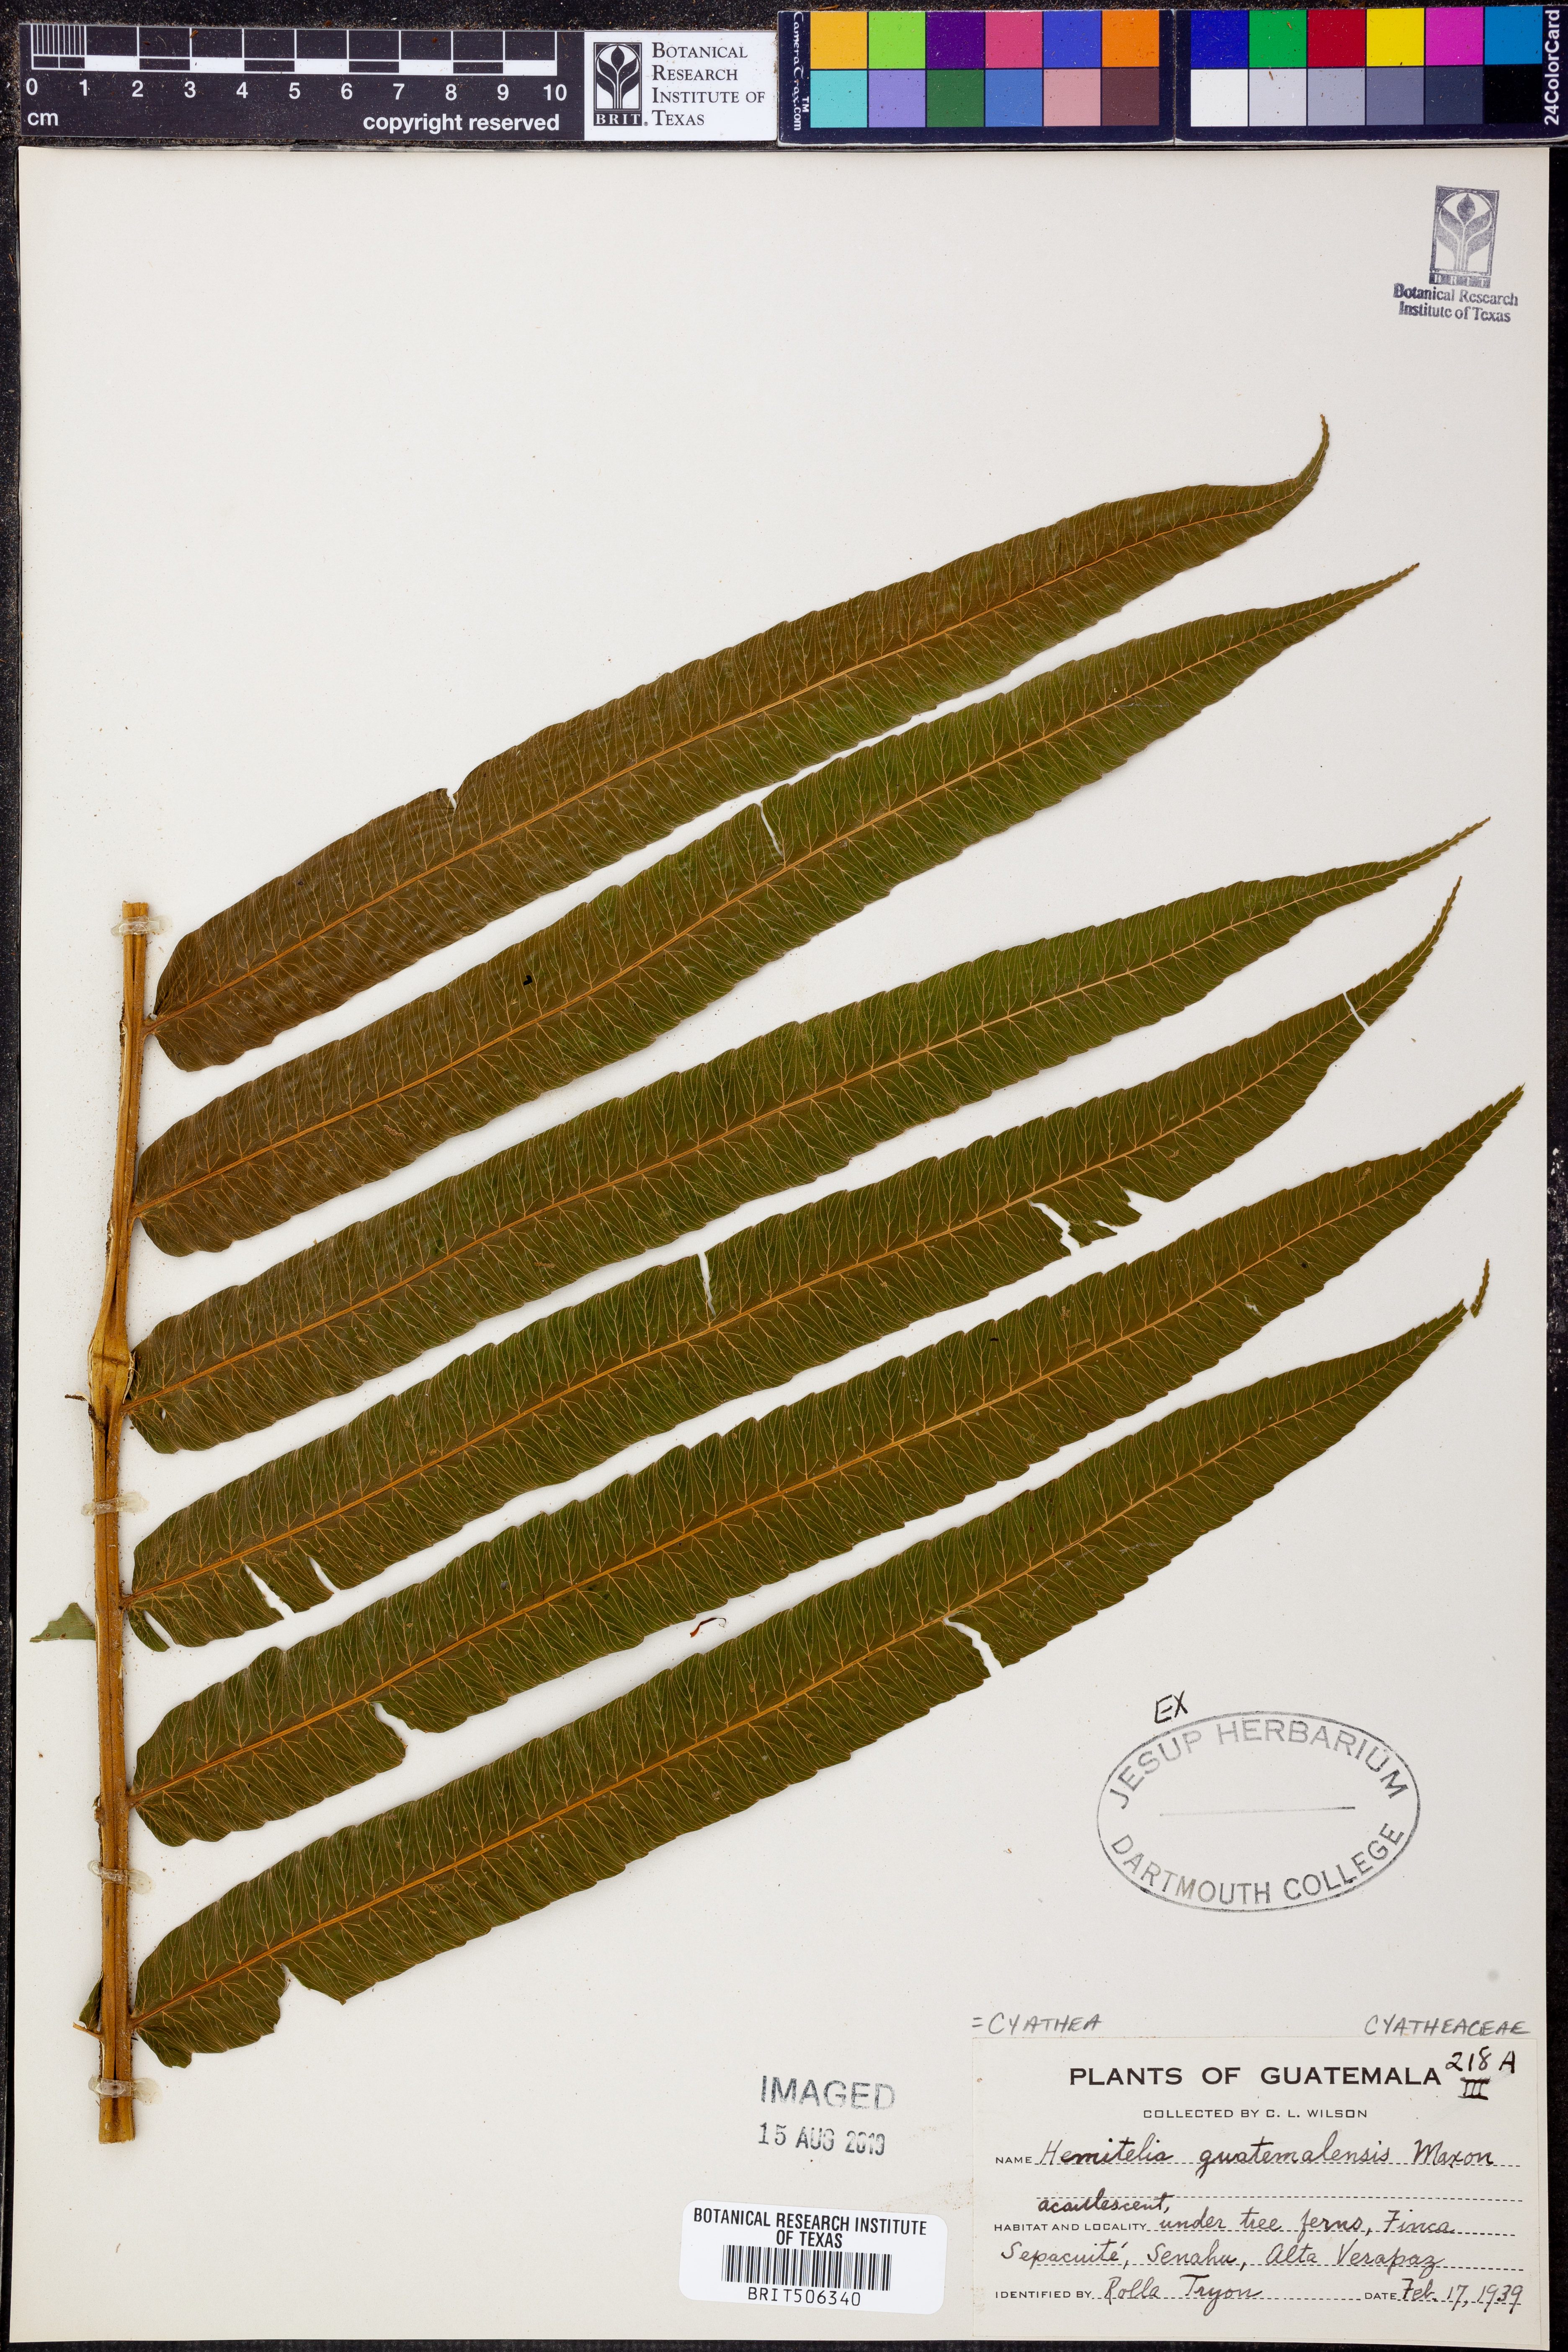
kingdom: Plantae
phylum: Tracheophyta
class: Polypodiopsida
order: Cyatheales
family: Cyatheaceae
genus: Cyathea
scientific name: Cyathea liebmannii
